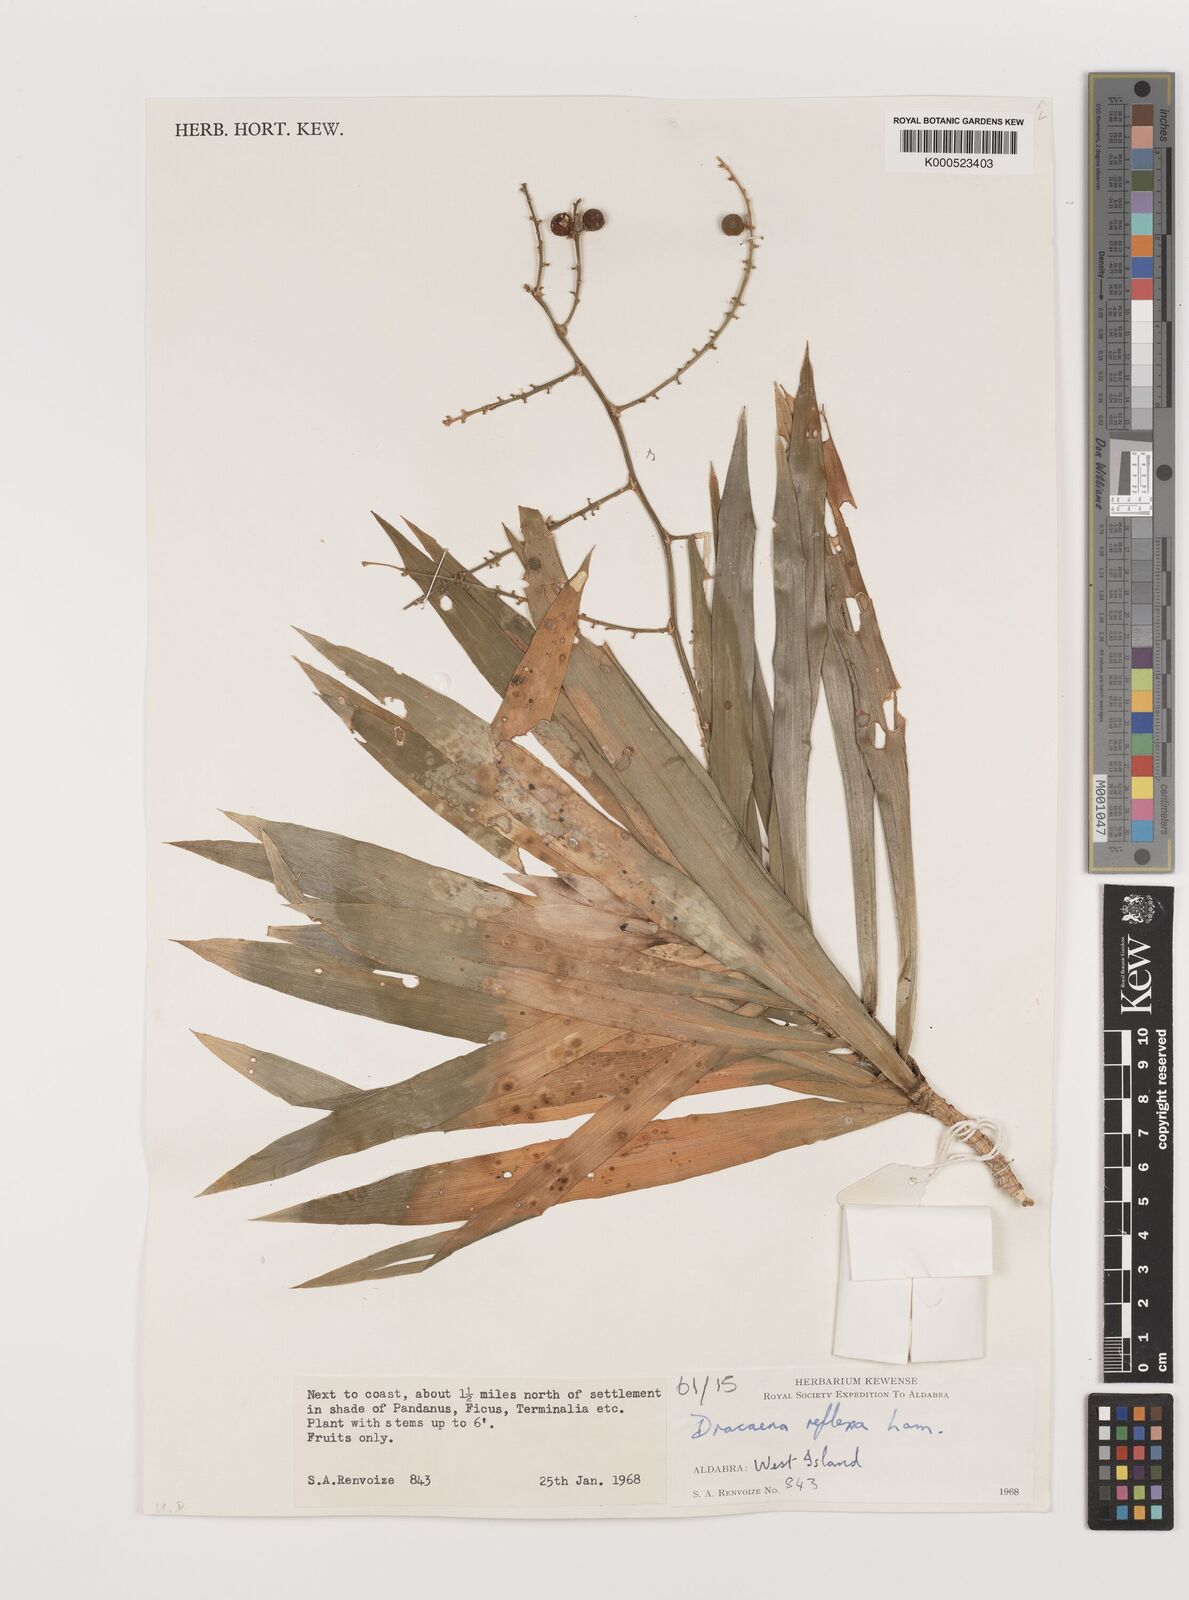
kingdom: Plantae
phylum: Tracheophyta
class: Liliopsida
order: Asparagales
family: Asparagaceae
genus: Dracaena
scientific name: Dracaena reflexa
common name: Song-of-india
